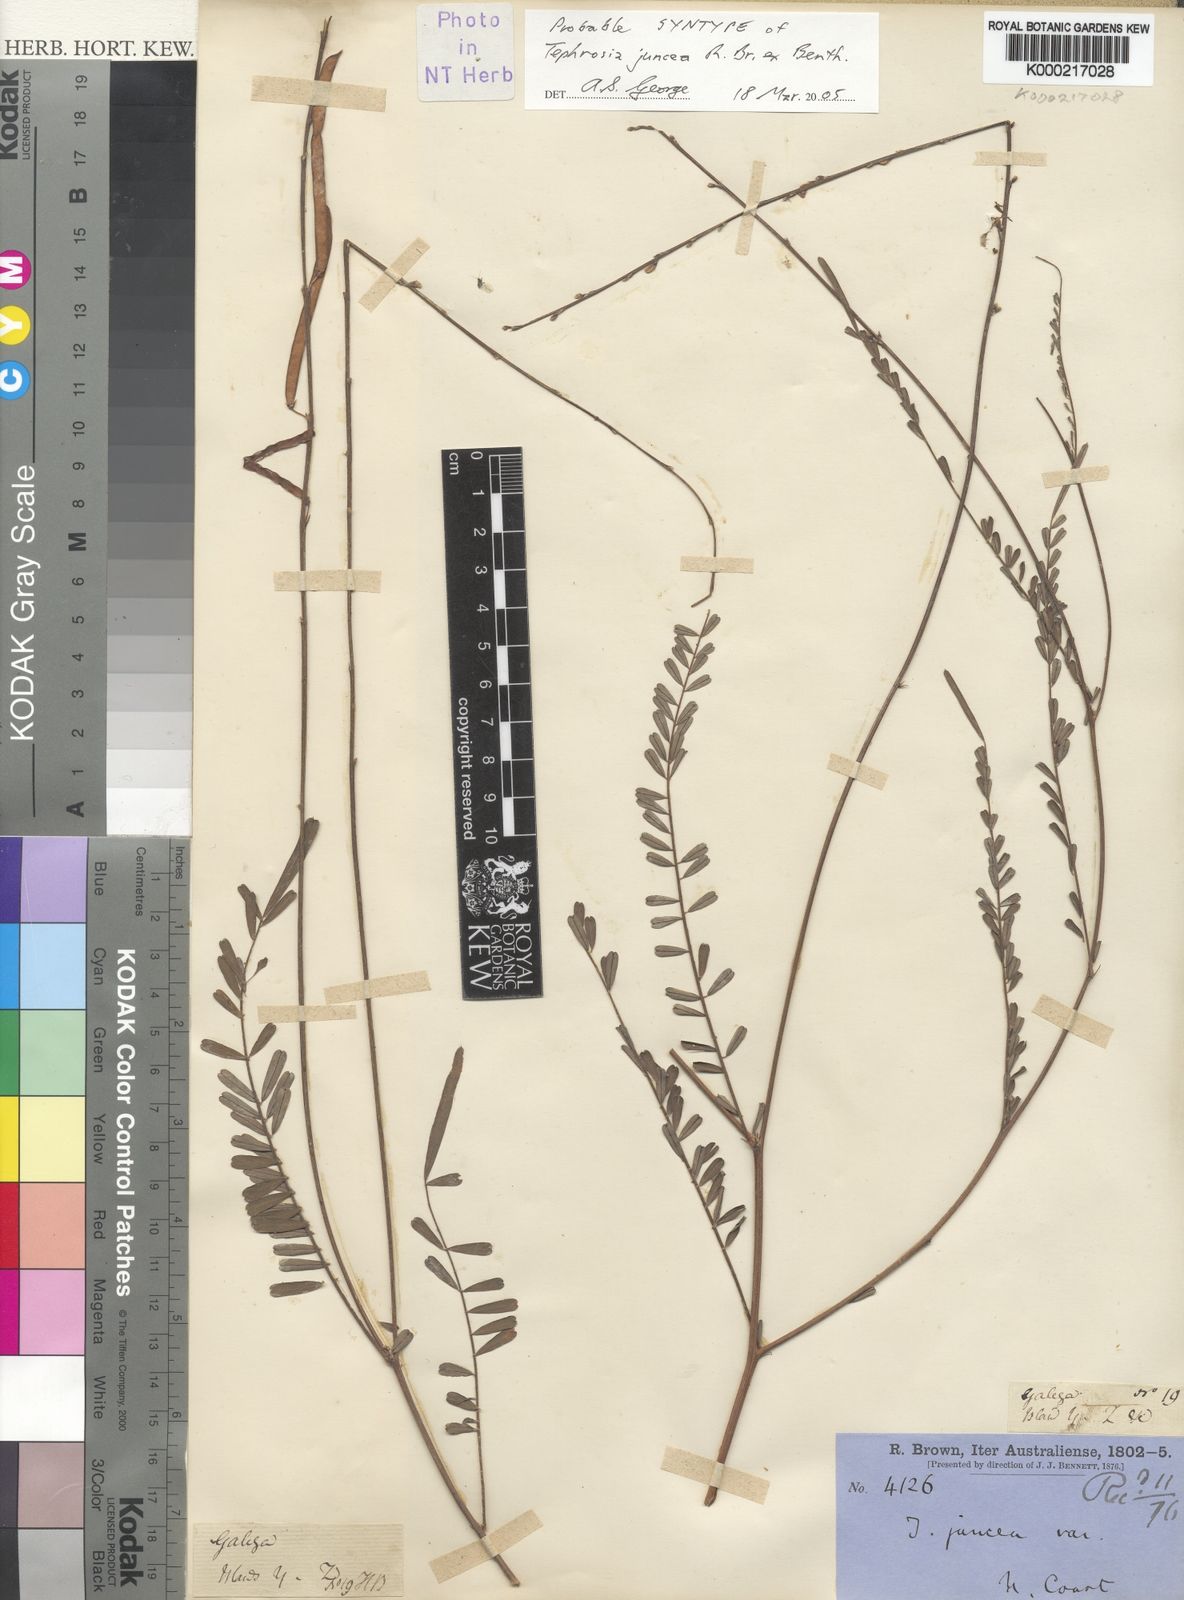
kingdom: Plantae
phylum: Tracheophyta
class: Magnoliopsida
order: Fabales
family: Fabaceae
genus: Tephrosia
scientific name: Tephrosia juncea
